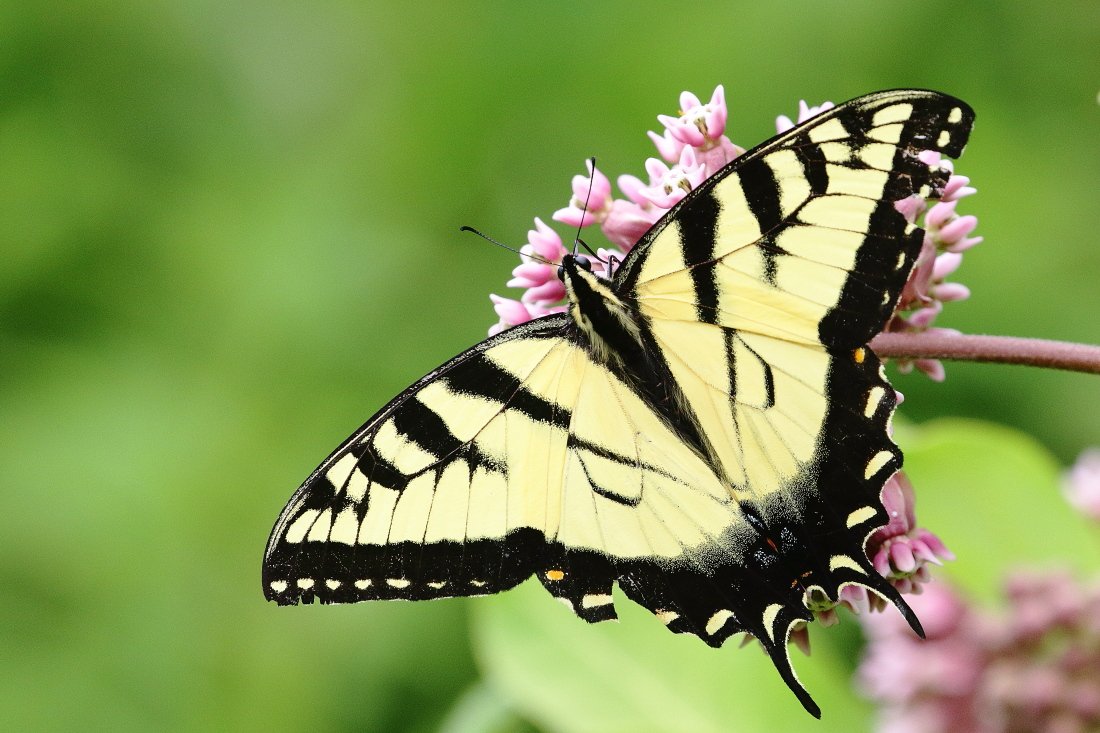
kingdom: Animalia
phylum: Arthropoda
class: Insecta
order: Lepidoptera
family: Papilionidae
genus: Pterourus
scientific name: Pterourus glaucus
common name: Eastern Tiger Swallowtail
